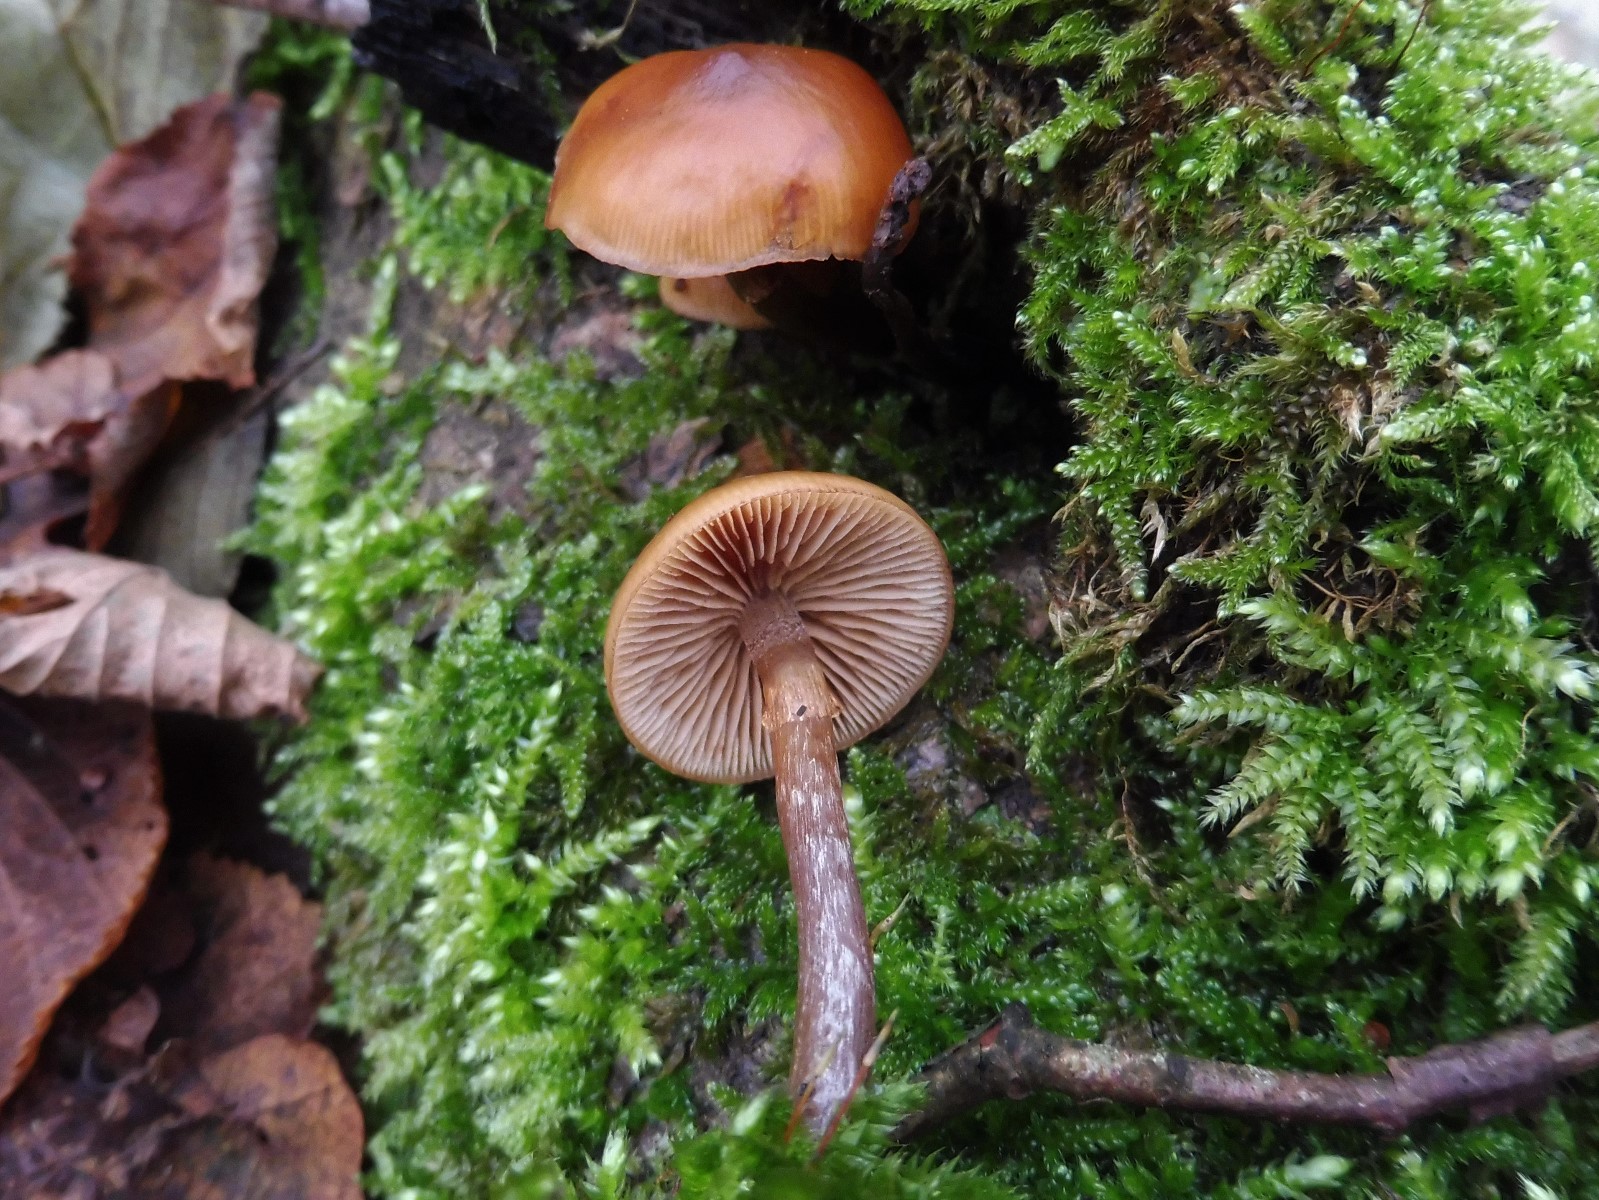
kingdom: Fungi
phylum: Basidiomycota
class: Agaricomycetes
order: Agaricales
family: Hymenogastraceae
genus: Galerina
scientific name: Galerina marginata
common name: randbæltet hjelmhat
